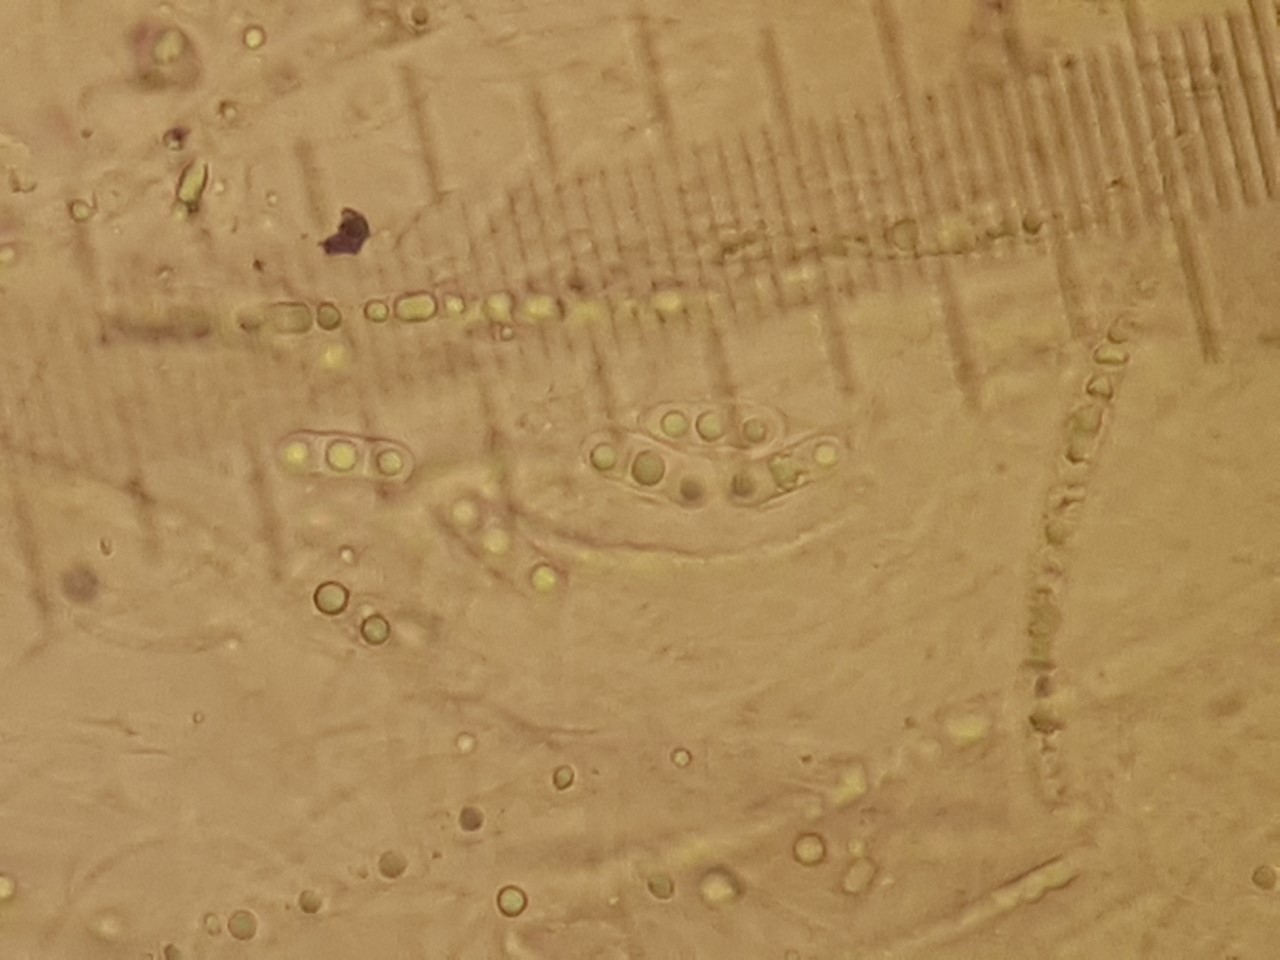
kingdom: Fungi
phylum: Ascomycota
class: Sordariomycetes
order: Xylariales
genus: Melomastia
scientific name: Melomastia mastoidea
